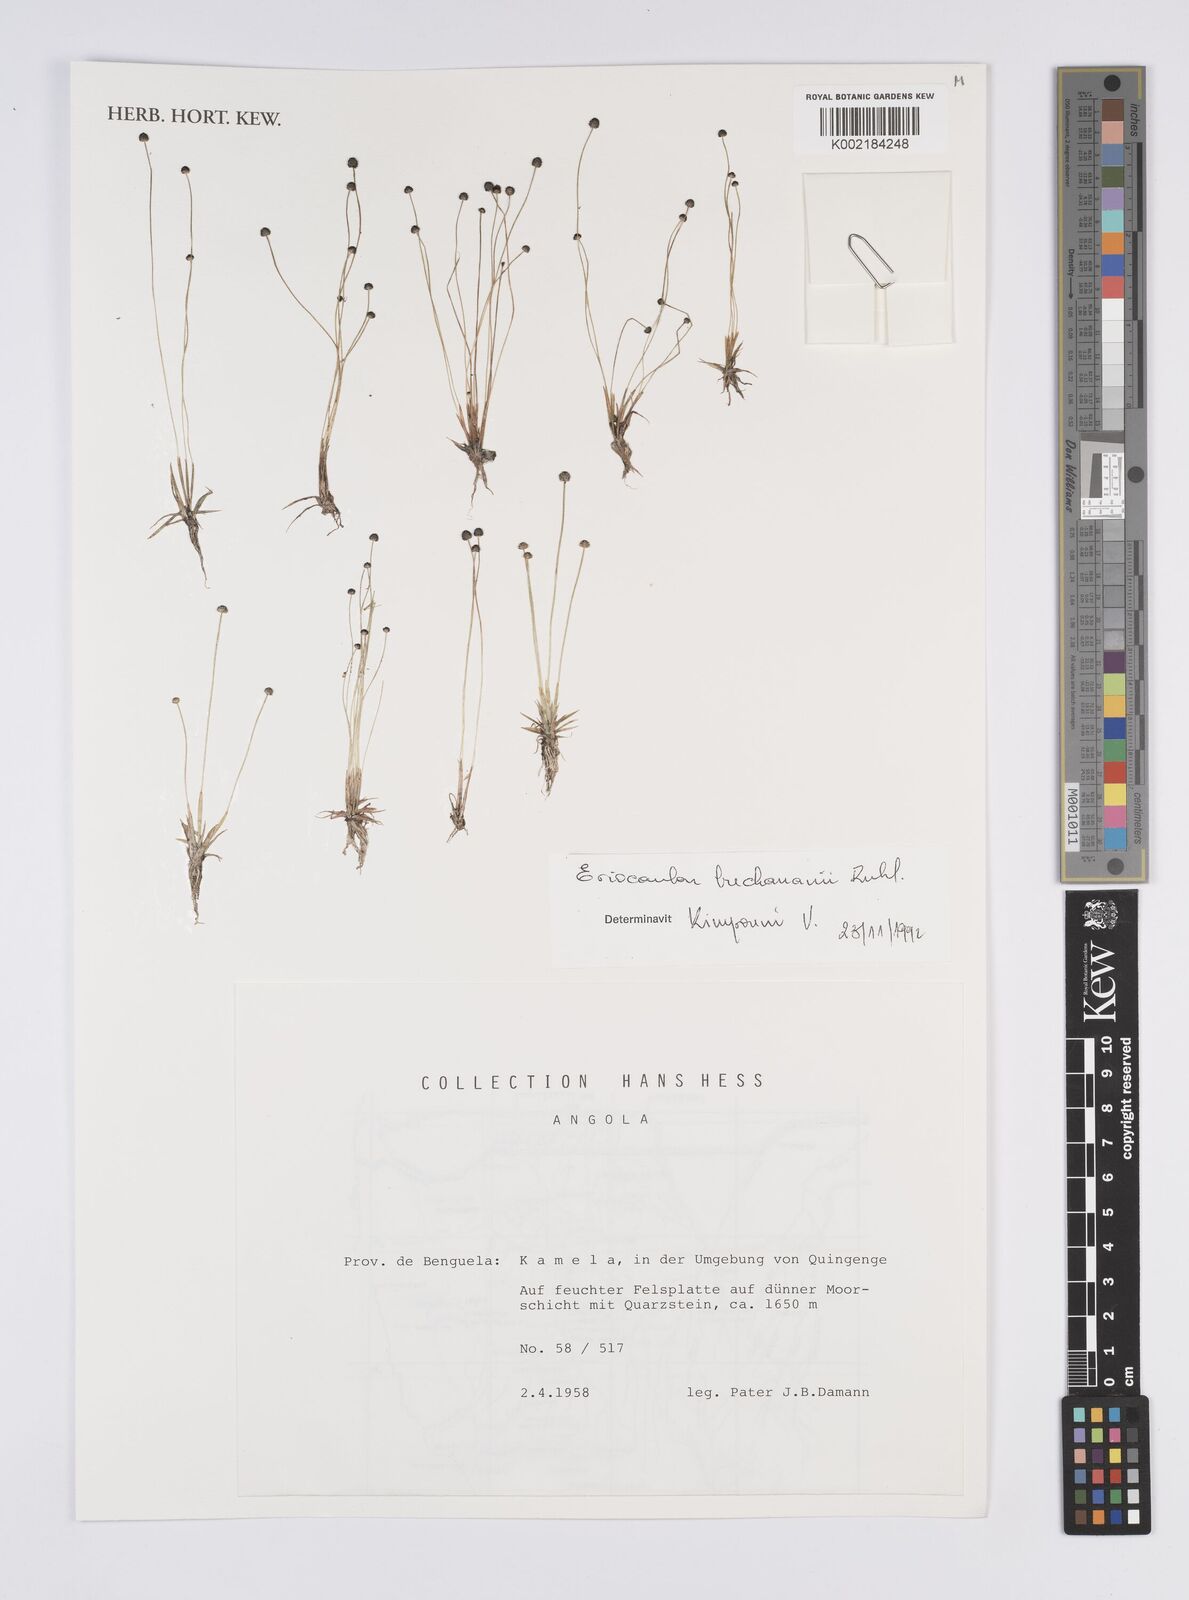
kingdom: Plantae
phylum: Tracheophyta
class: Liliopsida
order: Poales
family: Eriocaulaceae
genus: Eriocaulon
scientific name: Eriocaulon buchananii
